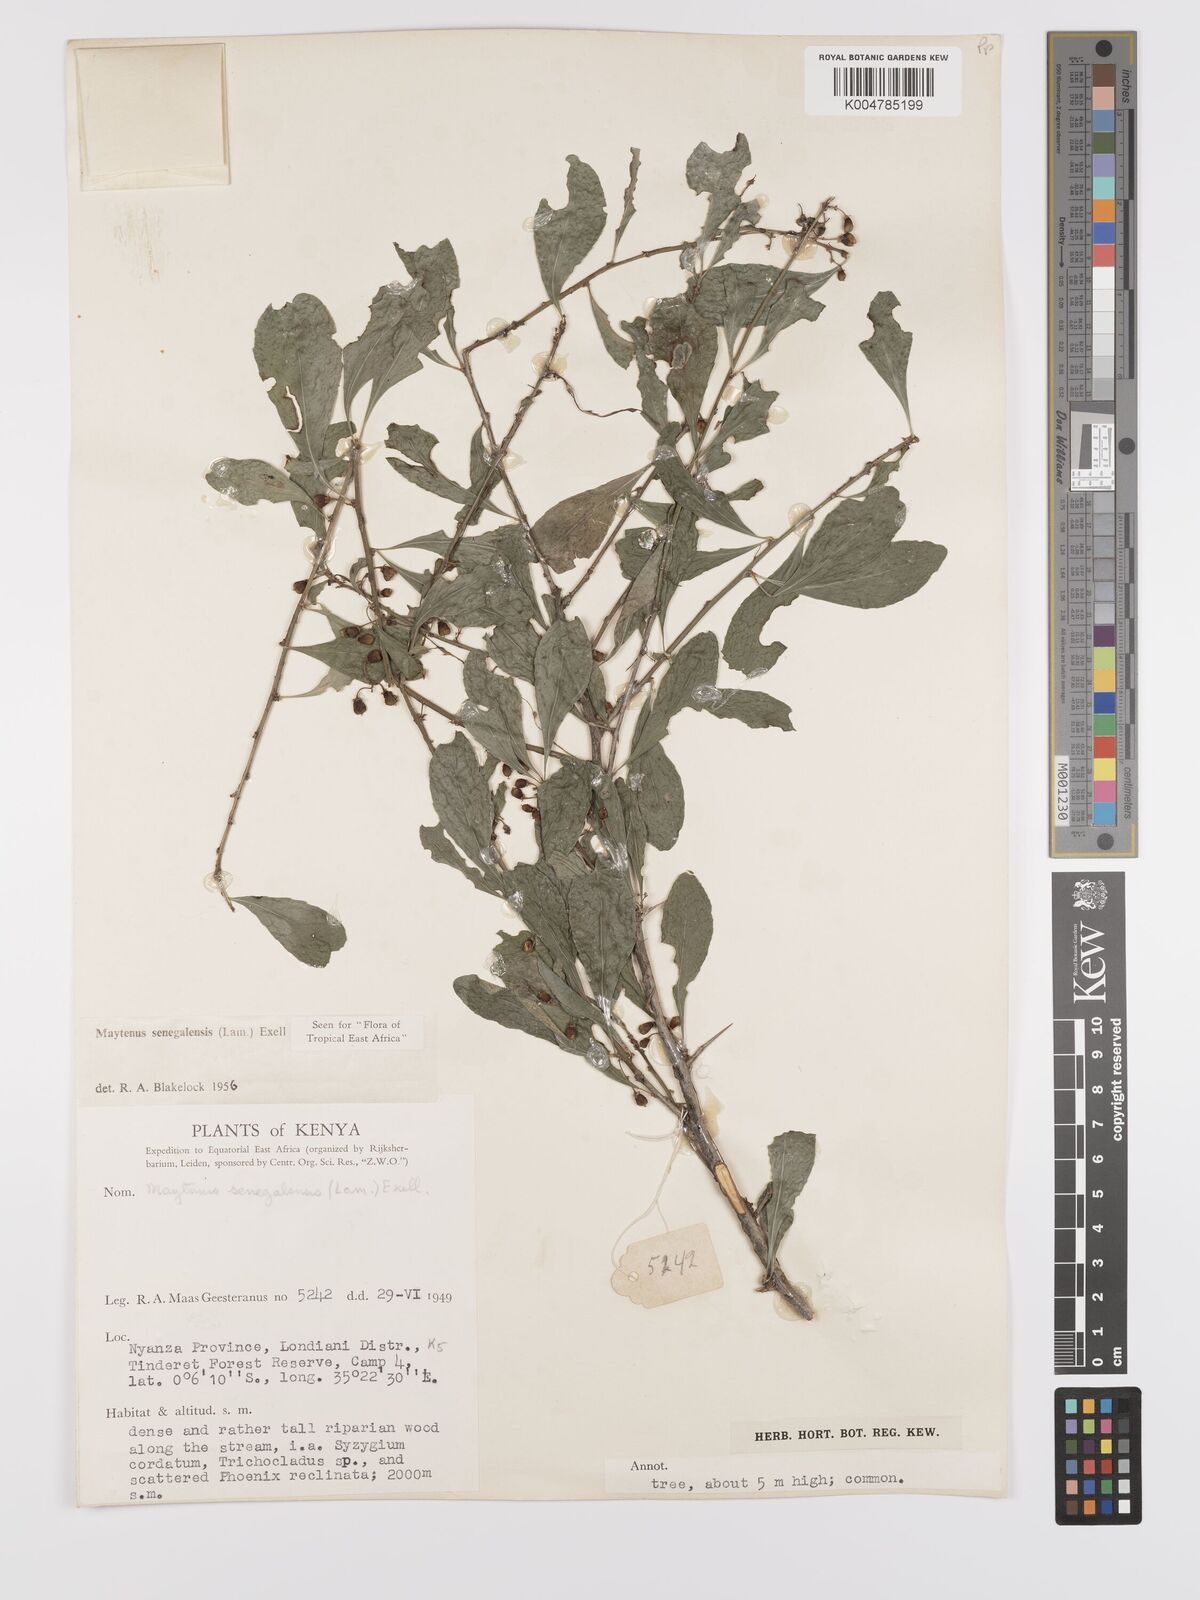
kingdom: Plantae
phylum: Tracheophyta
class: Magnoliopsida
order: Celastrales
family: Celastraceae
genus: Gymnosporia
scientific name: Gymnosporia heterophylla
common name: Angle-stem spikethorn
